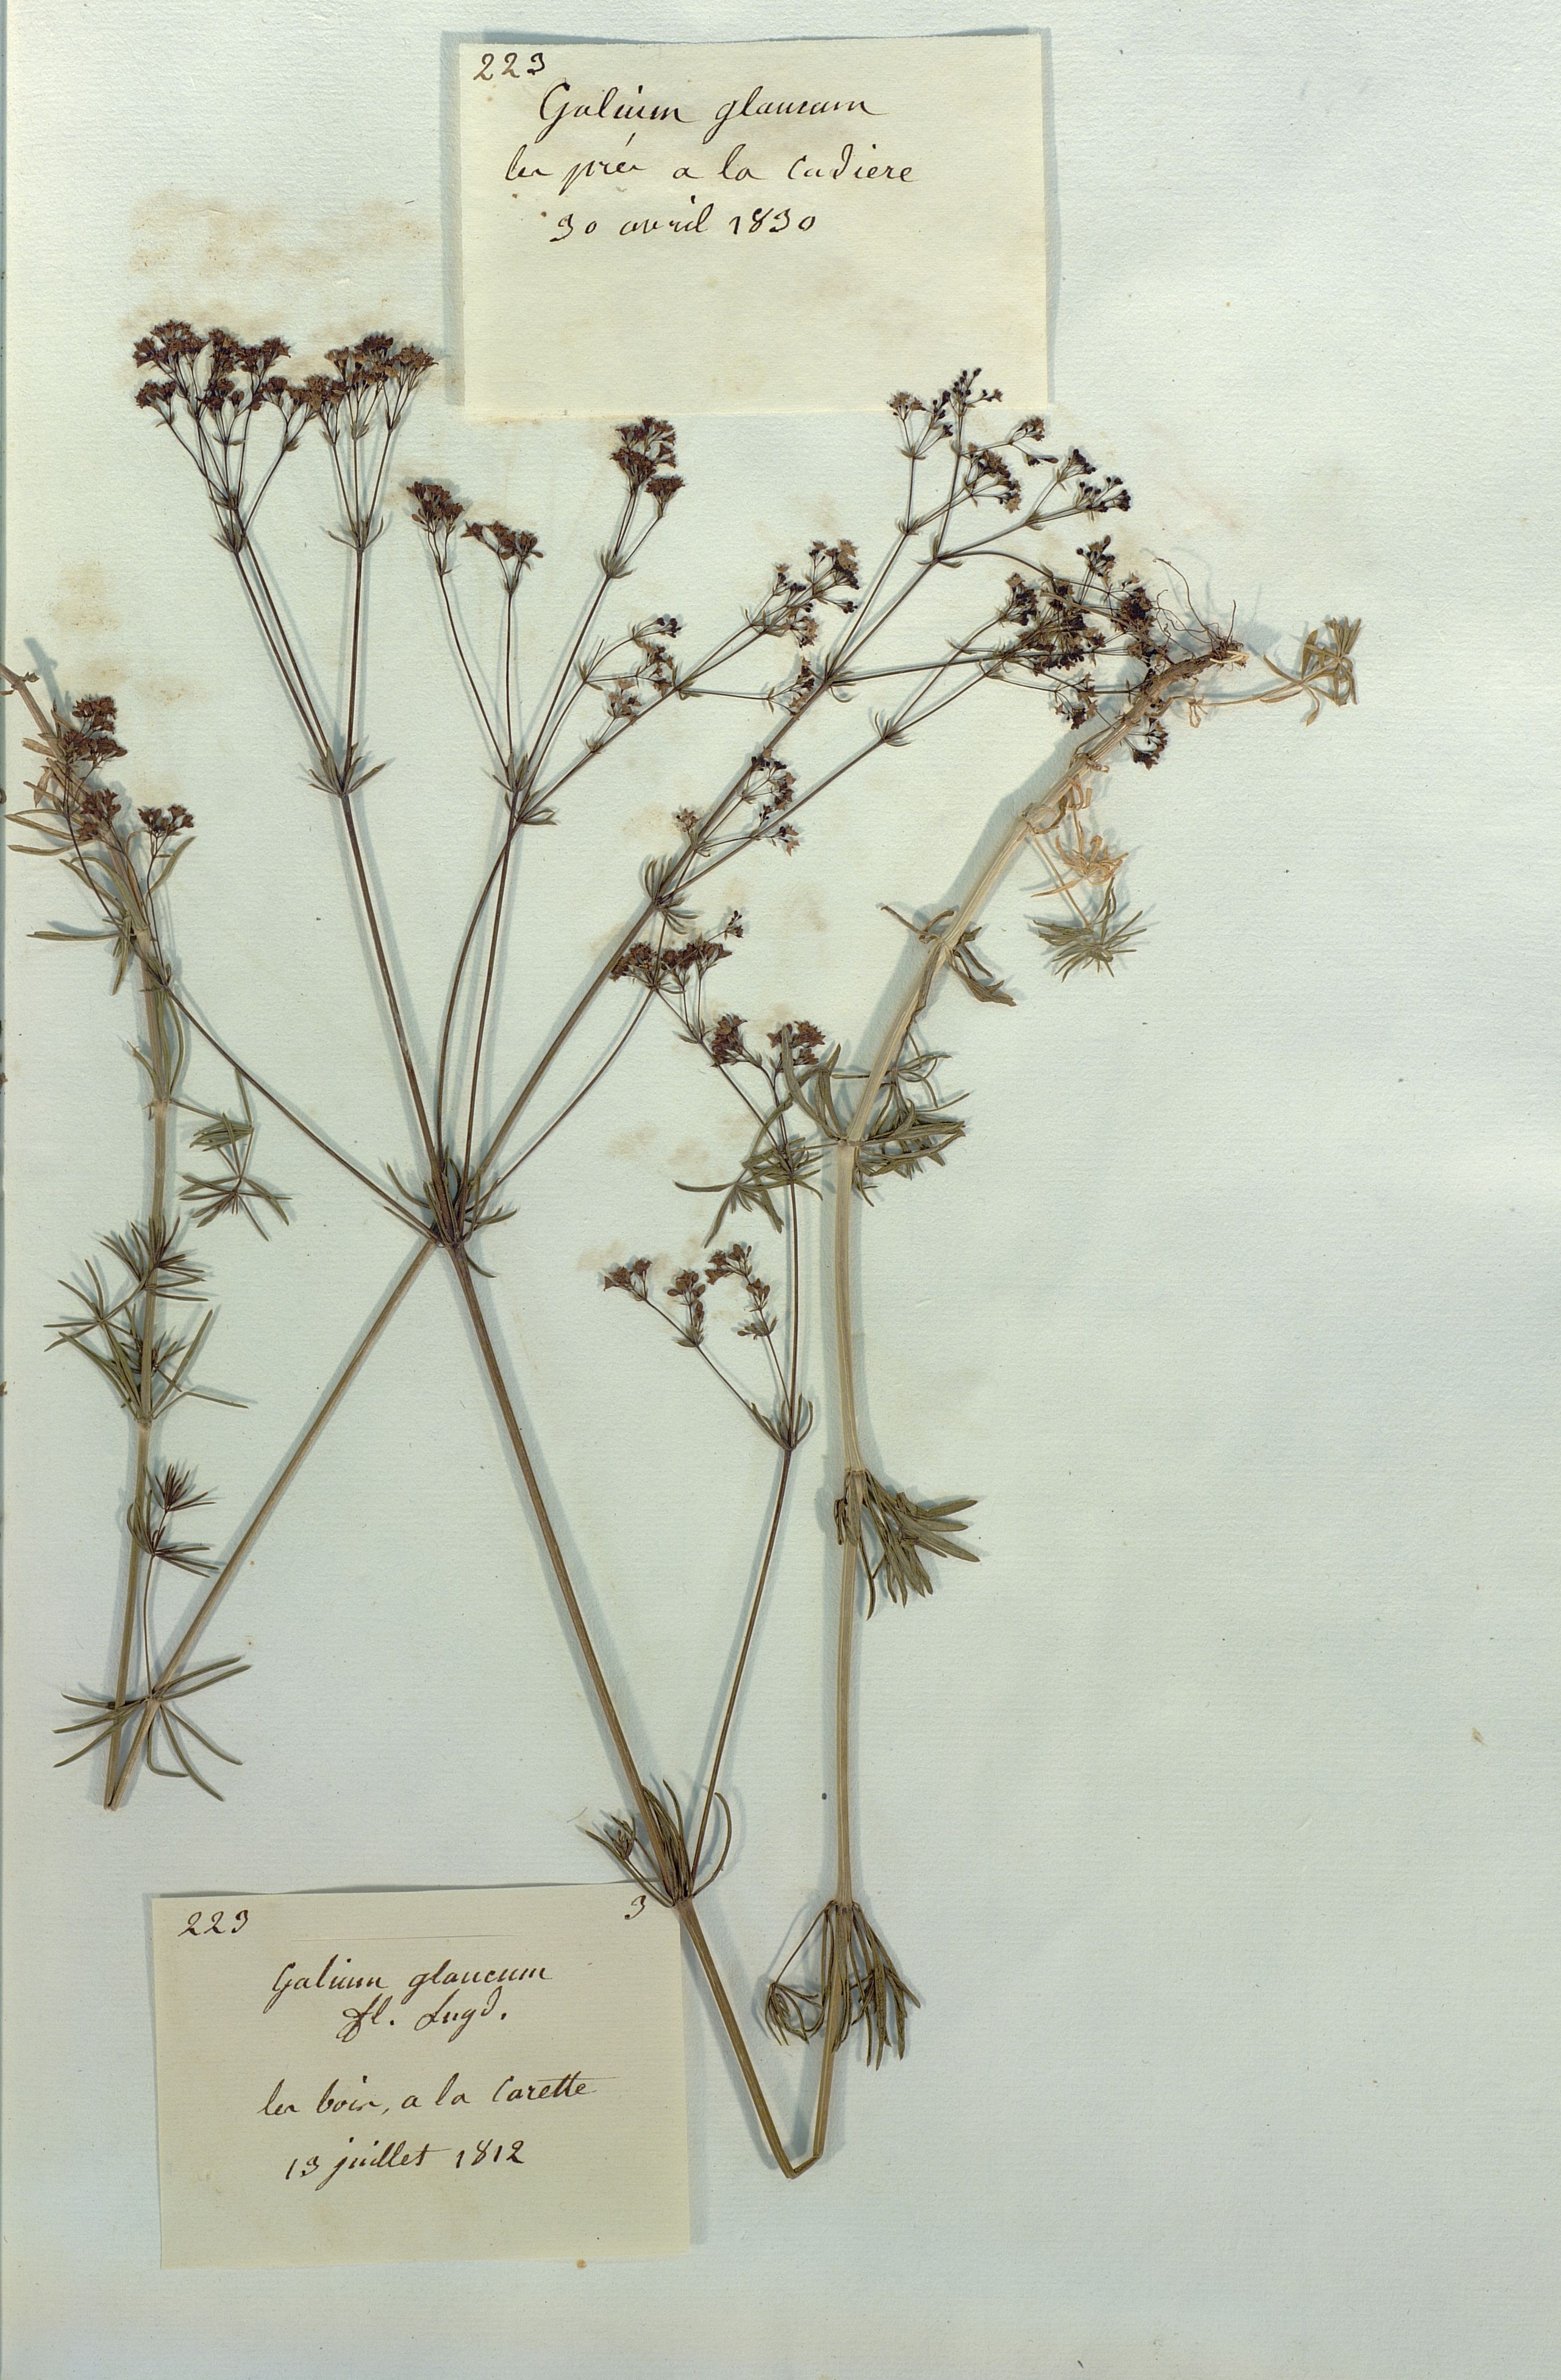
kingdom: Plantae
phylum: Tracheophyta
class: Magnoliopsida
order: Gentianales
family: Rubiaceae
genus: Galium
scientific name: Galium glaucum
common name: Waxy bedstraw
